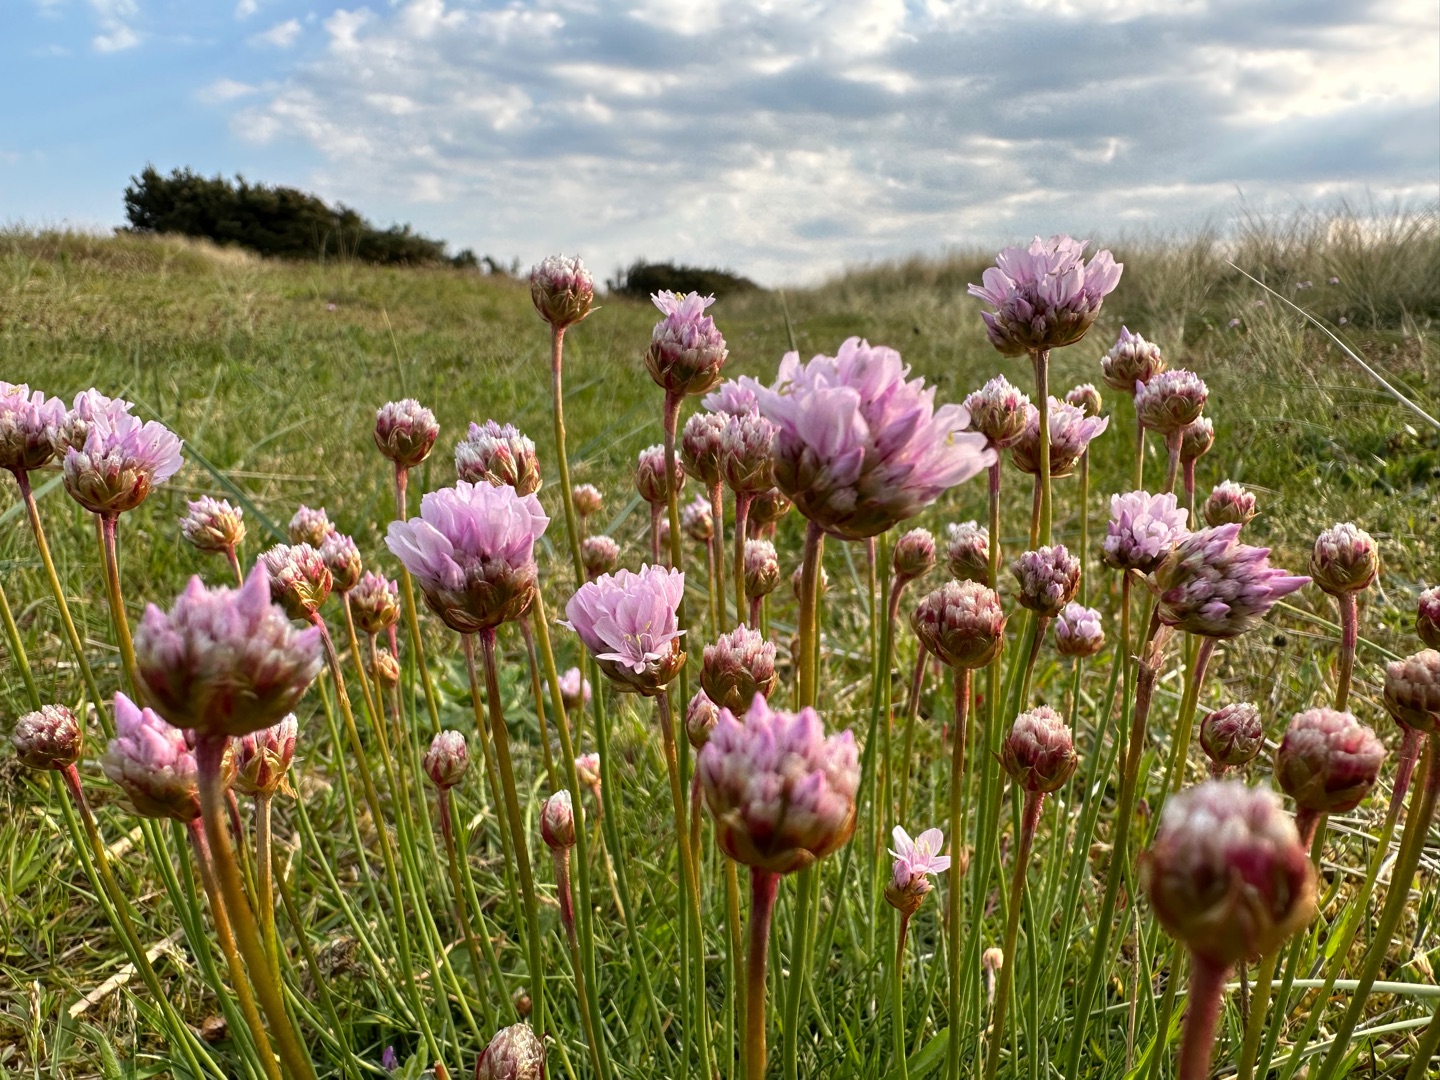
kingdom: Plantae
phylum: Tracheophyta
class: Magnoliopsida
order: Caryophyllales
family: Plumbaginaceae
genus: Armeria
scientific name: Armeria maritima
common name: Engelskgræs
